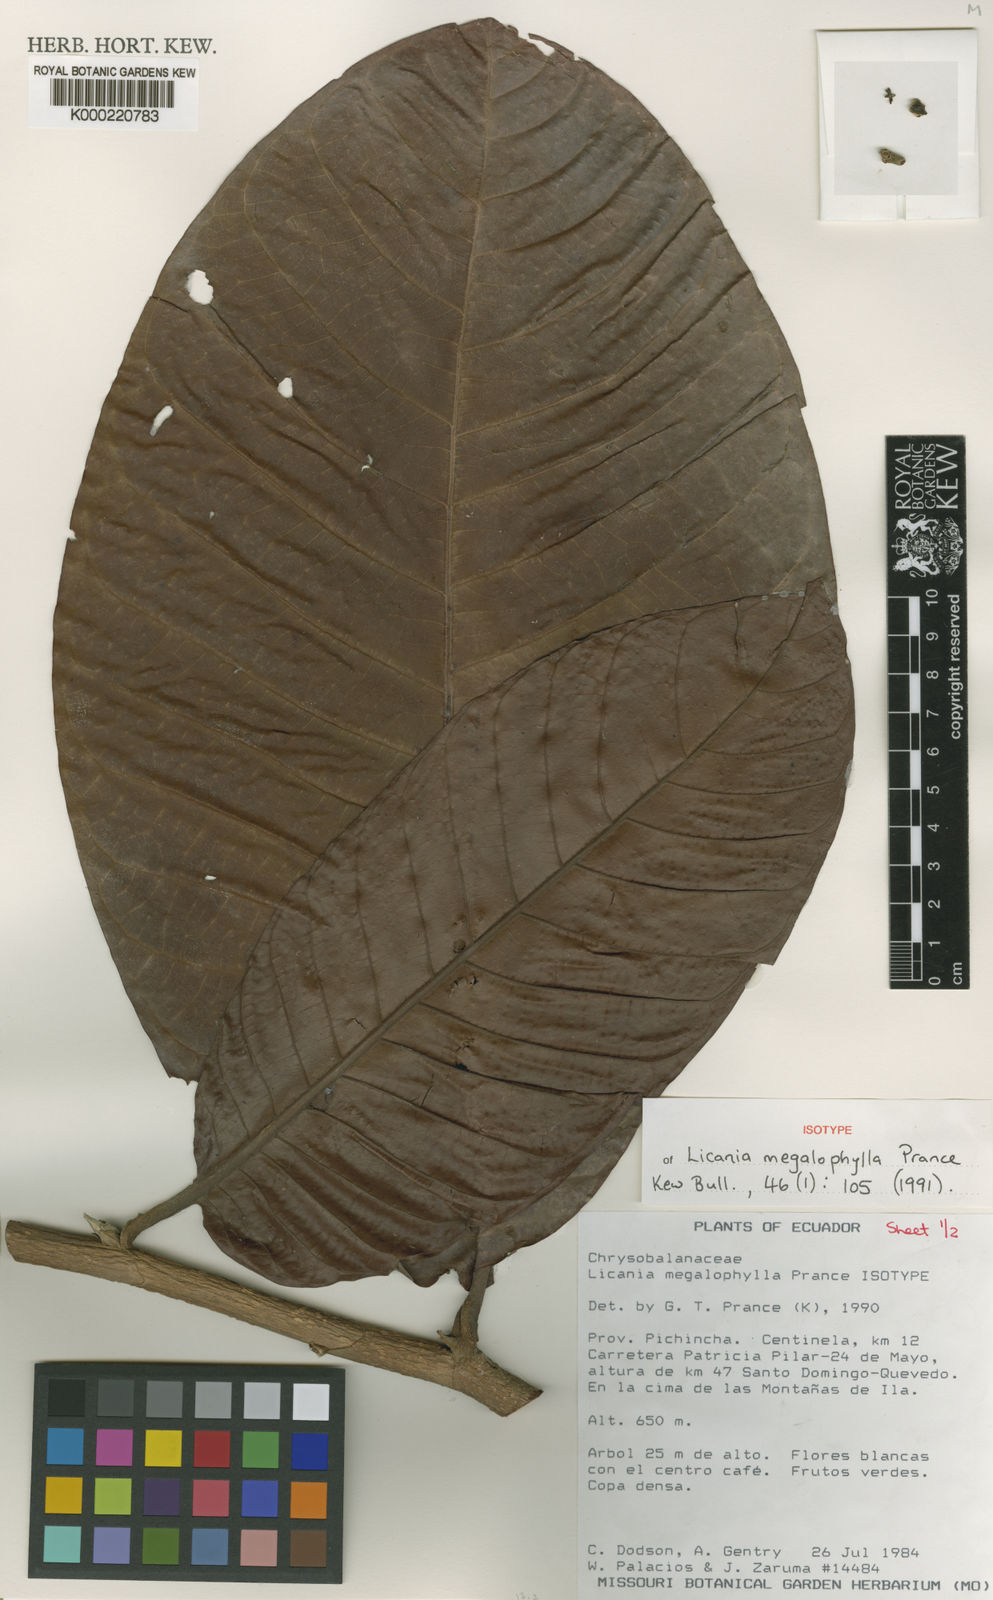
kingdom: Plantae
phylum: Tracheophyta
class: Magnoliopsida
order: Malpighiales
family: Chrysobalanaceae
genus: Moquilea
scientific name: Moquilea megalophylla
